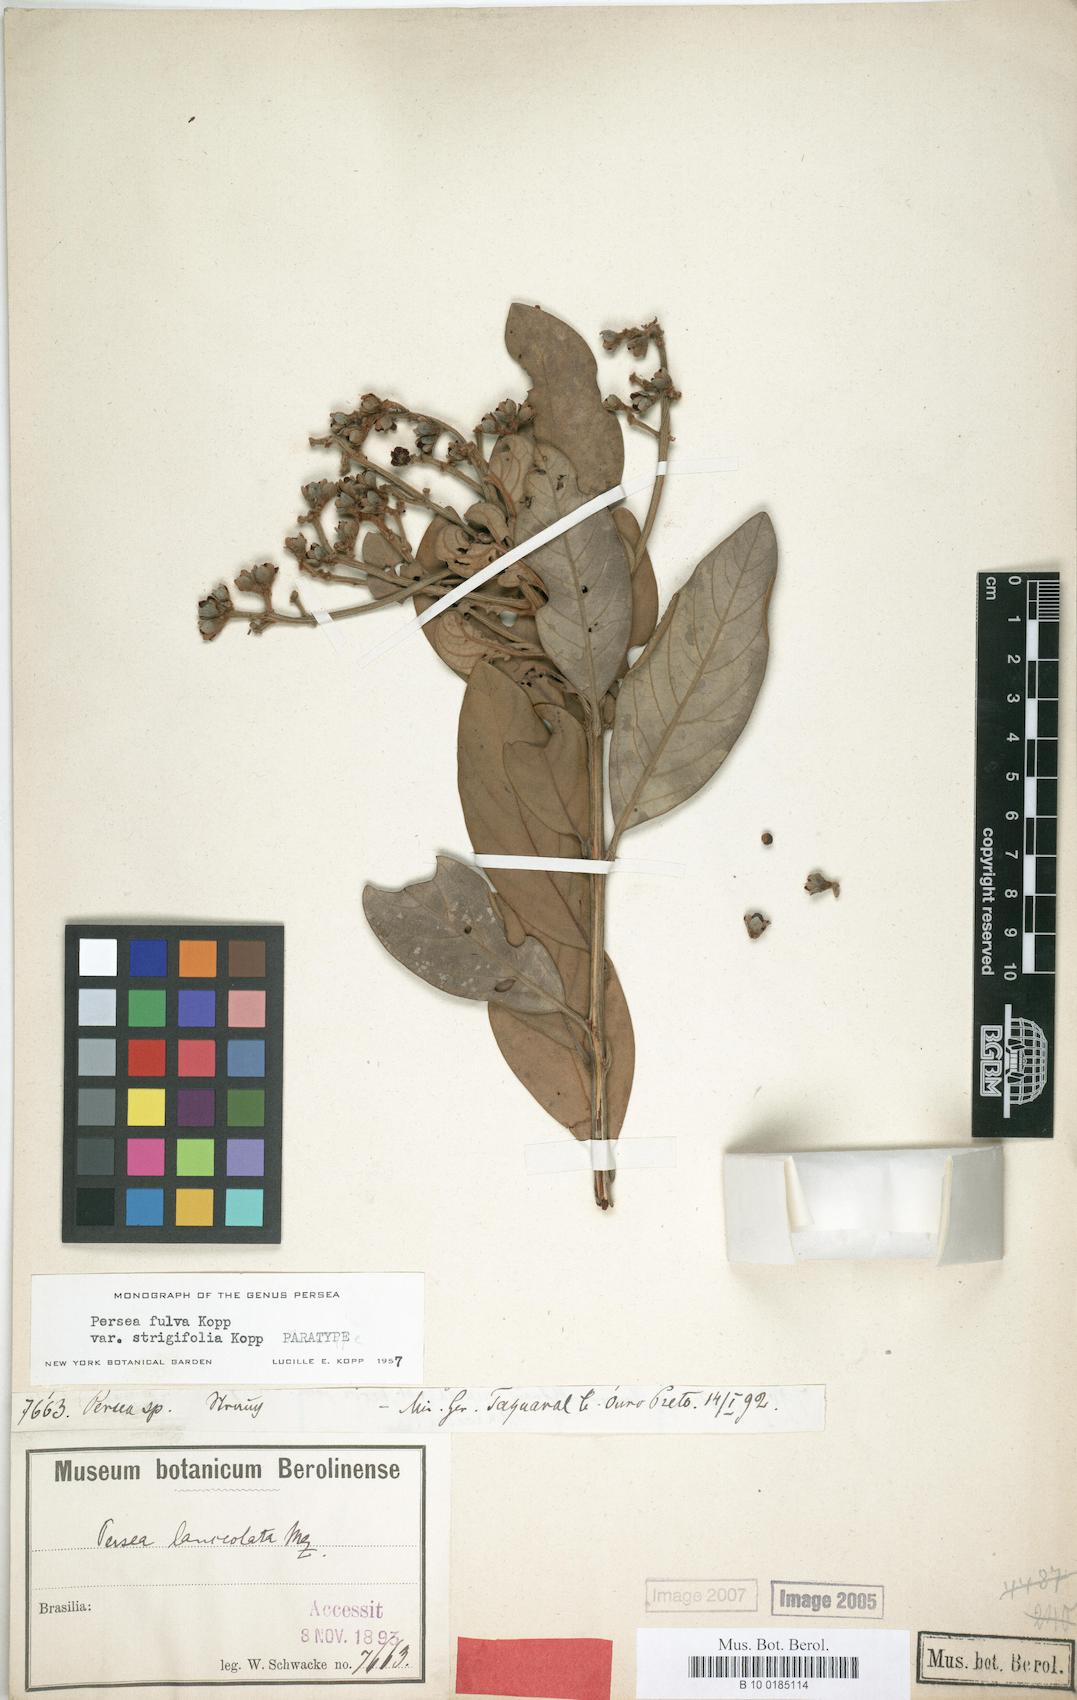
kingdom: Plantae
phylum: Tracheophyta
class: Magnoliopsida
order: Laurales
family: Lauraceae
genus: Persea
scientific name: Persea fulva
